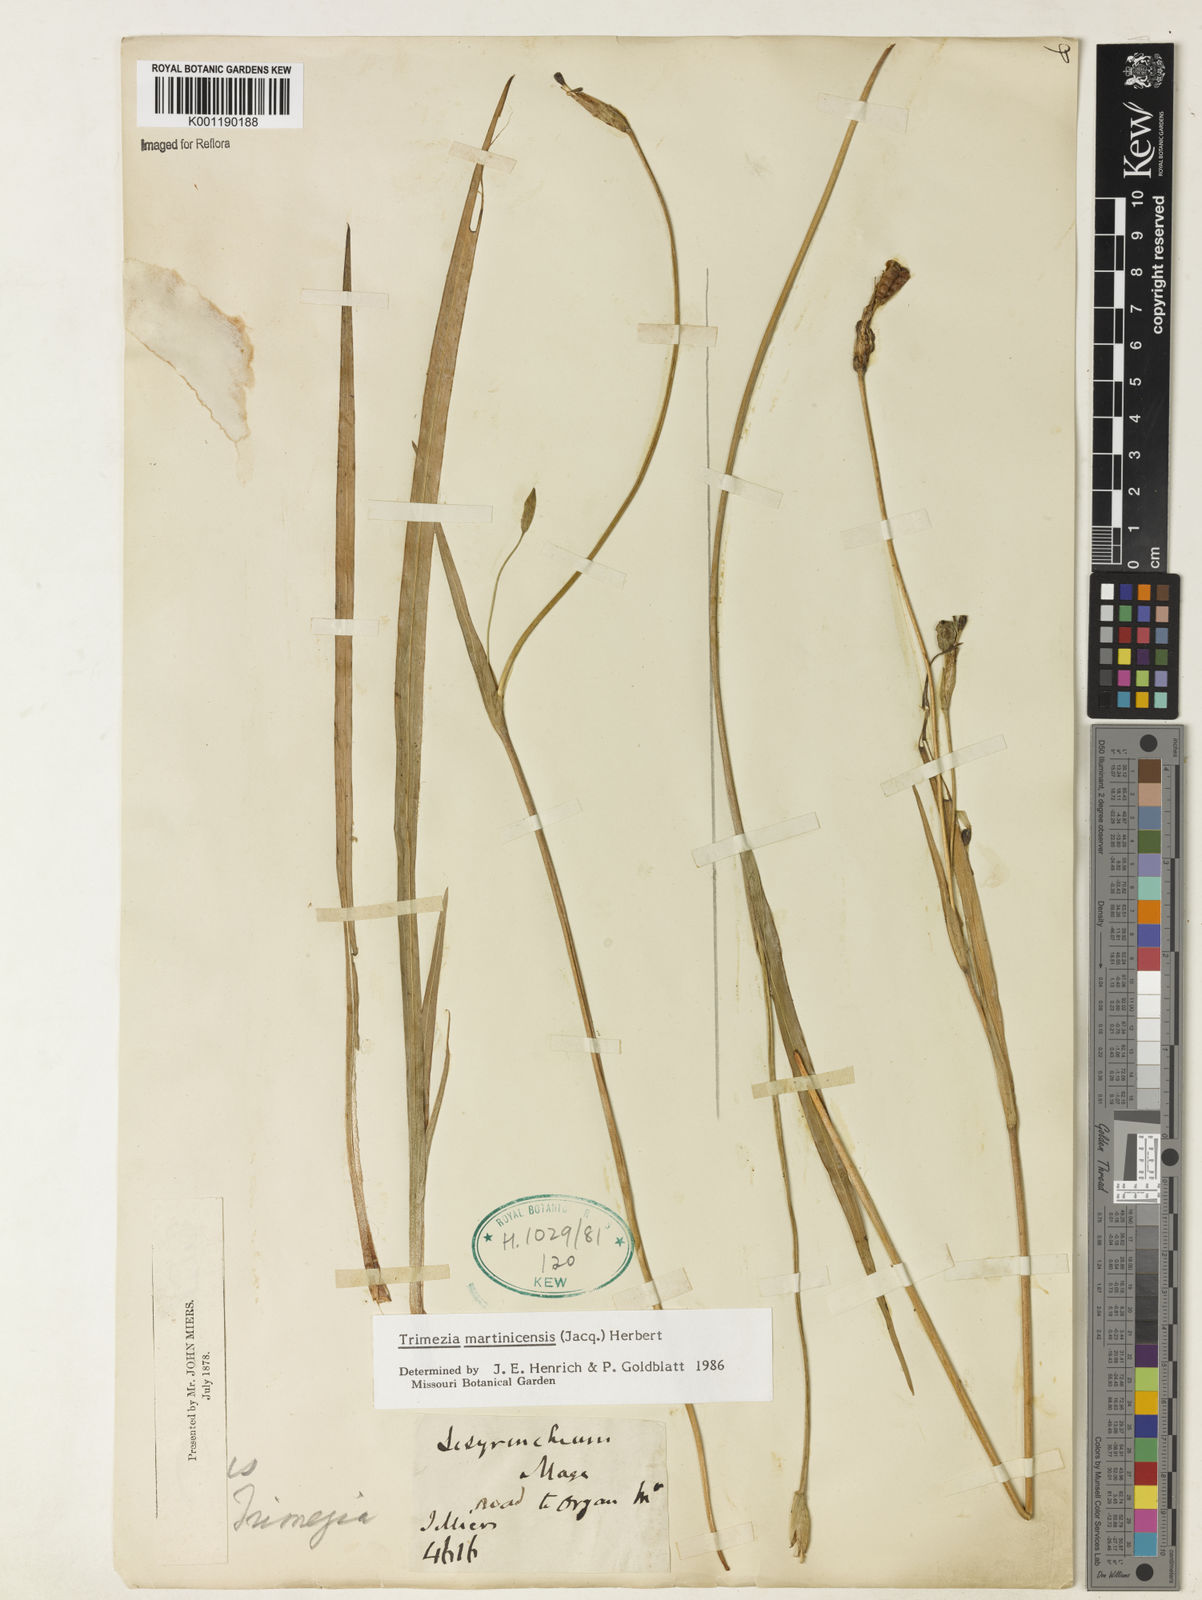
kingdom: Plantae
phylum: Tracheophyta
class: Liliopsida
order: Asparagales
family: Iridaceae
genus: Trimezia
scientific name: Trimezia martinicensis
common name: Martinique trimezia
